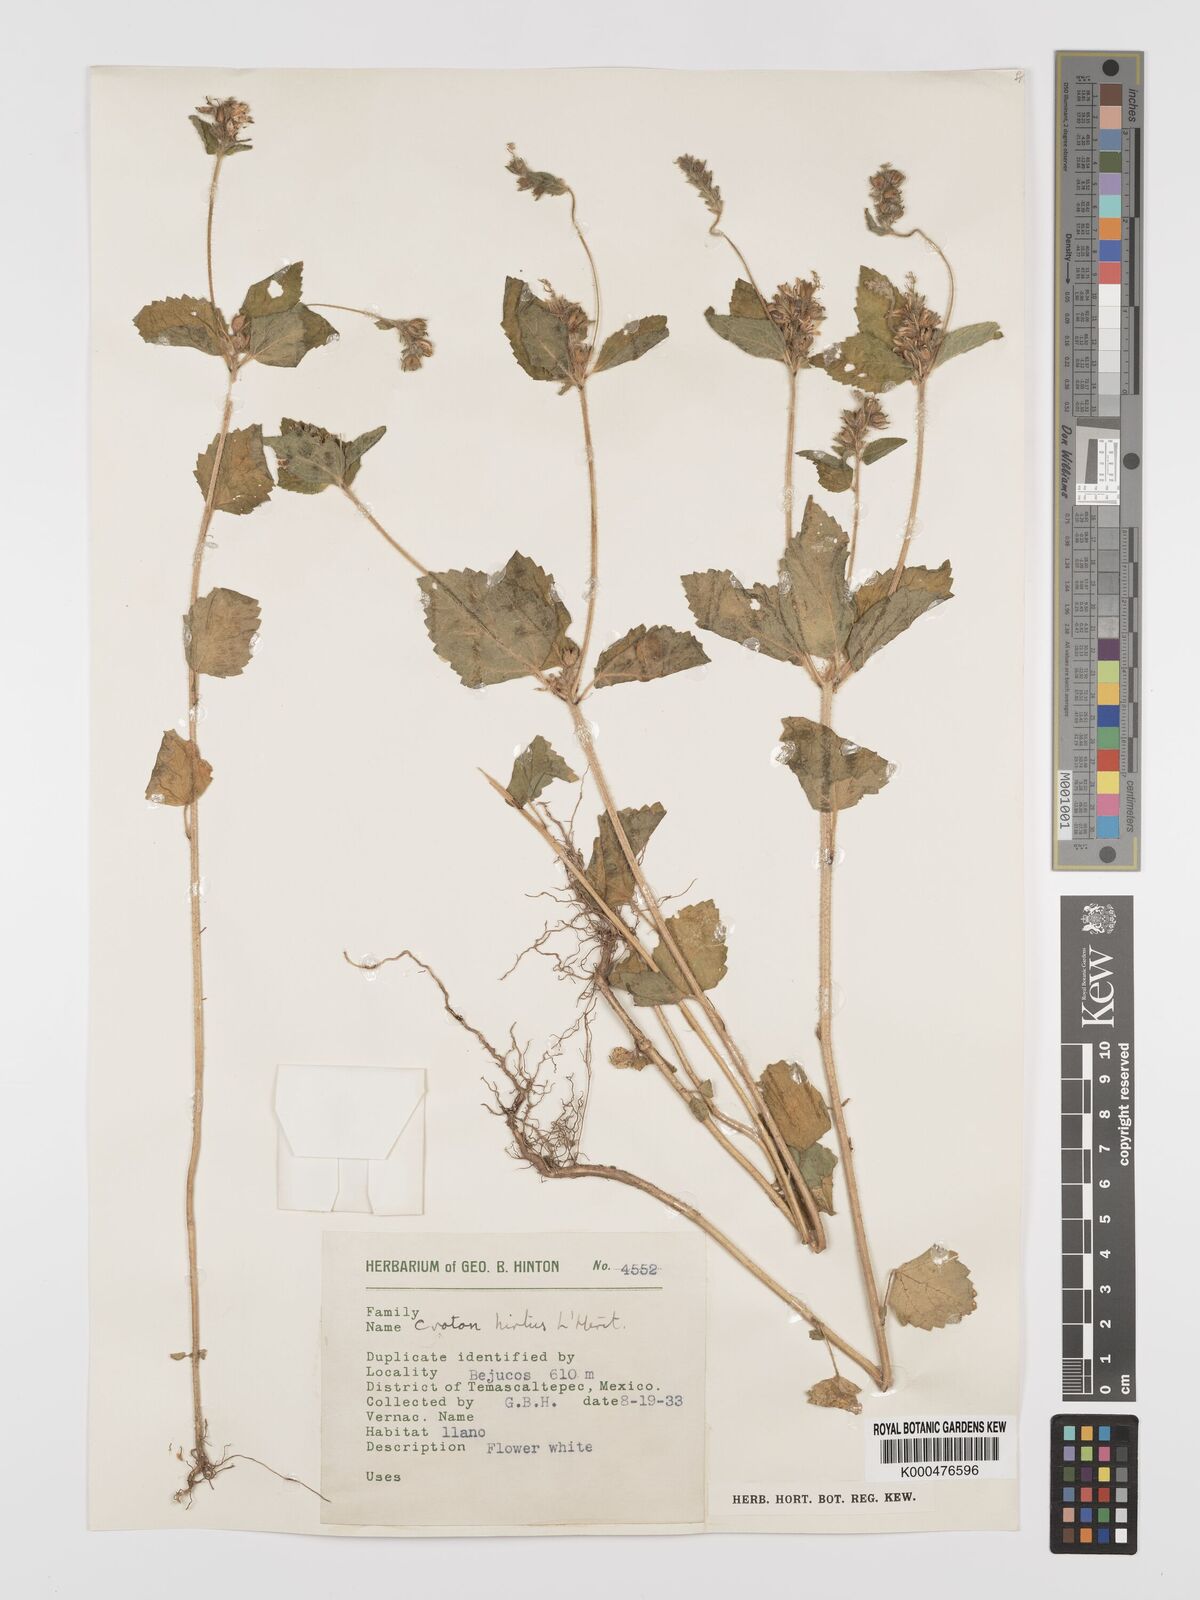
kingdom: Plantae
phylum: Tracheophyta
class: Magnoliopsida
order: Malpighiales
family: Euphorbiaceae
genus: Croton
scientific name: Croton
